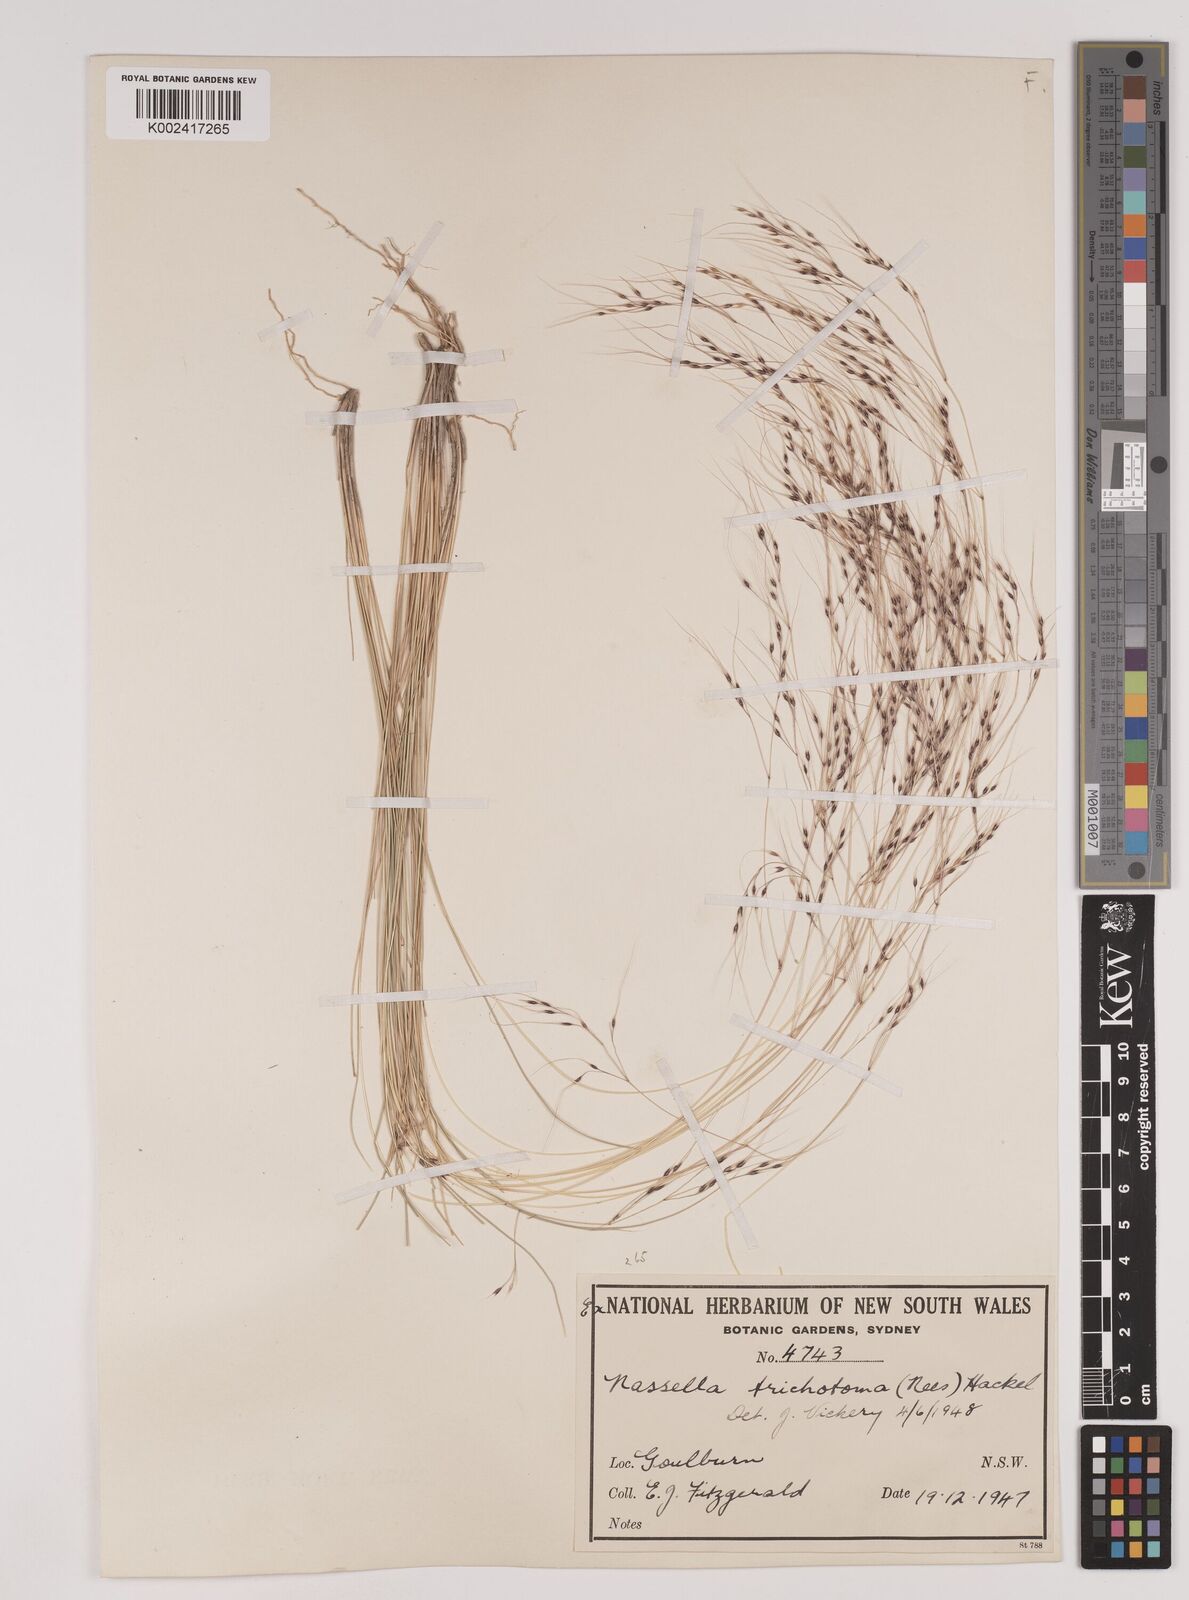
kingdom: Plantae
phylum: Tracheophyta
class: Liliopsida
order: Poales
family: Poaceae
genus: Nassella
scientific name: Nassella trichotoma
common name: Serrated tussock grass
